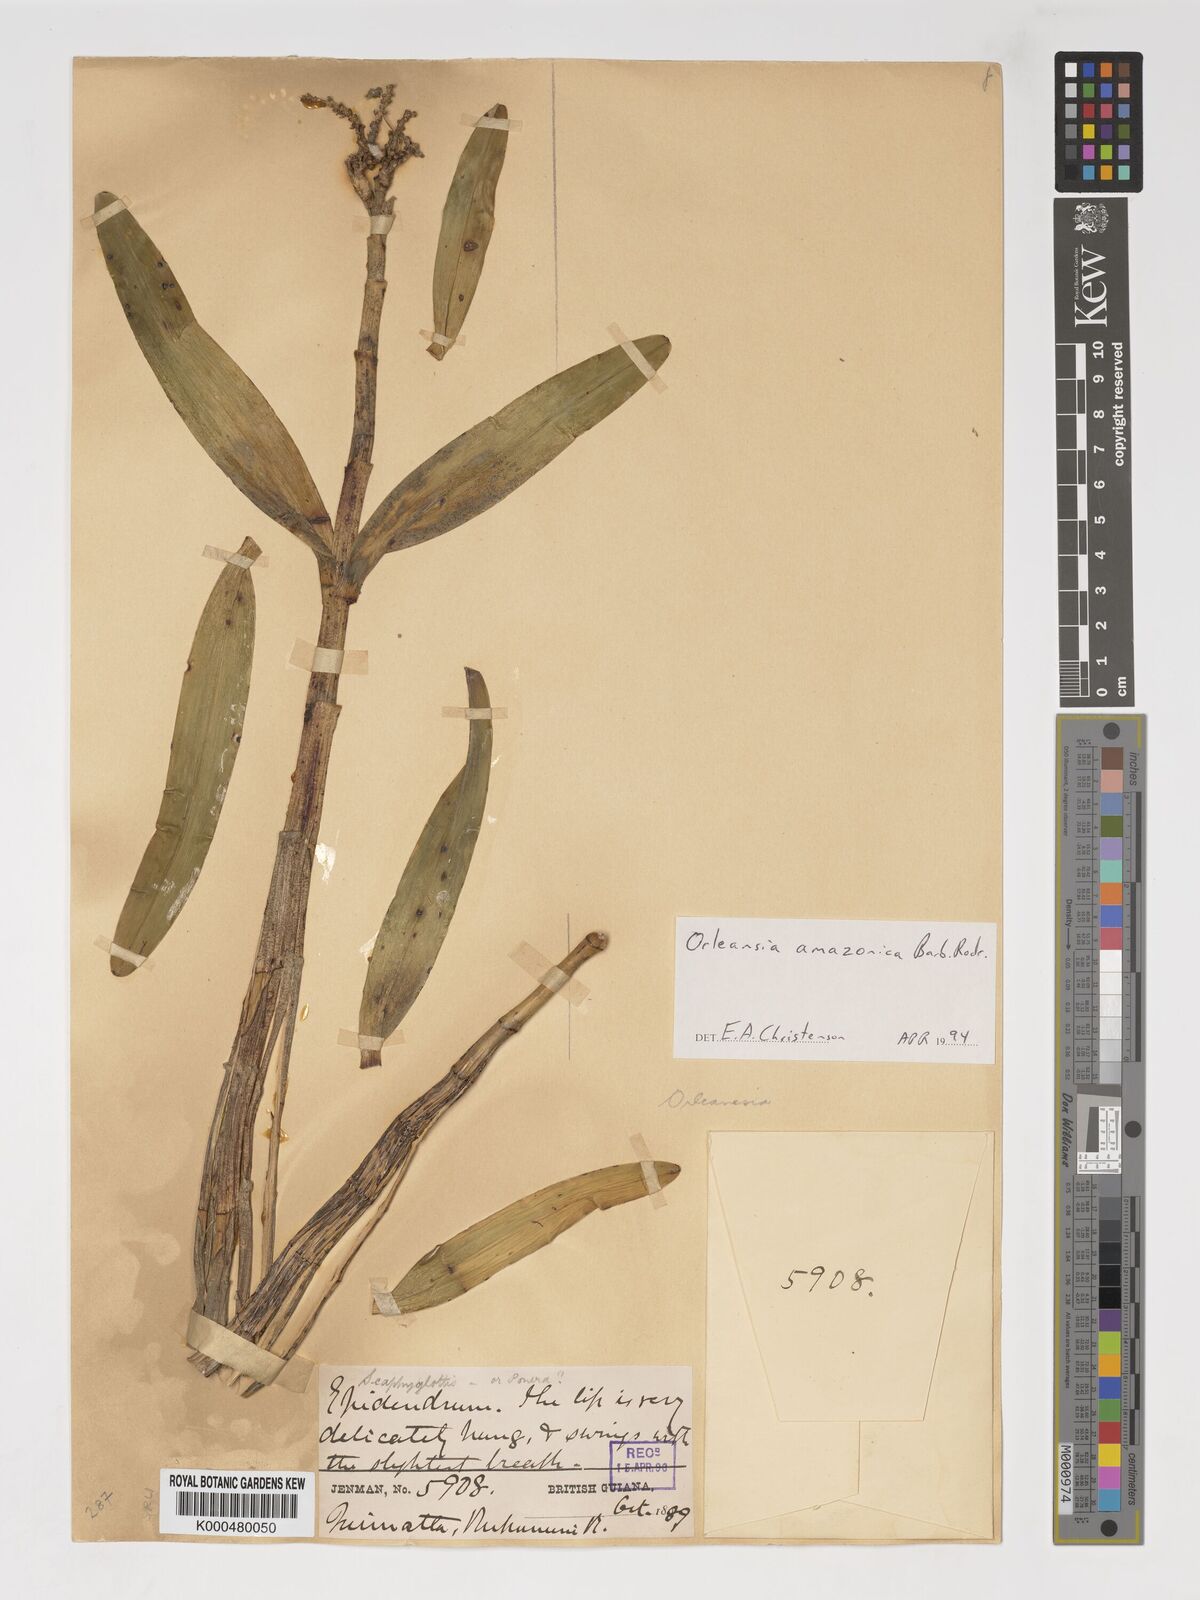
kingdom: Plantae
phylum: Tracheophyta
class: Liliopsida
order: Asparagales
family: Orchidaceae
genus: Orleanesia
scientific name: Orleanesia amazonica
